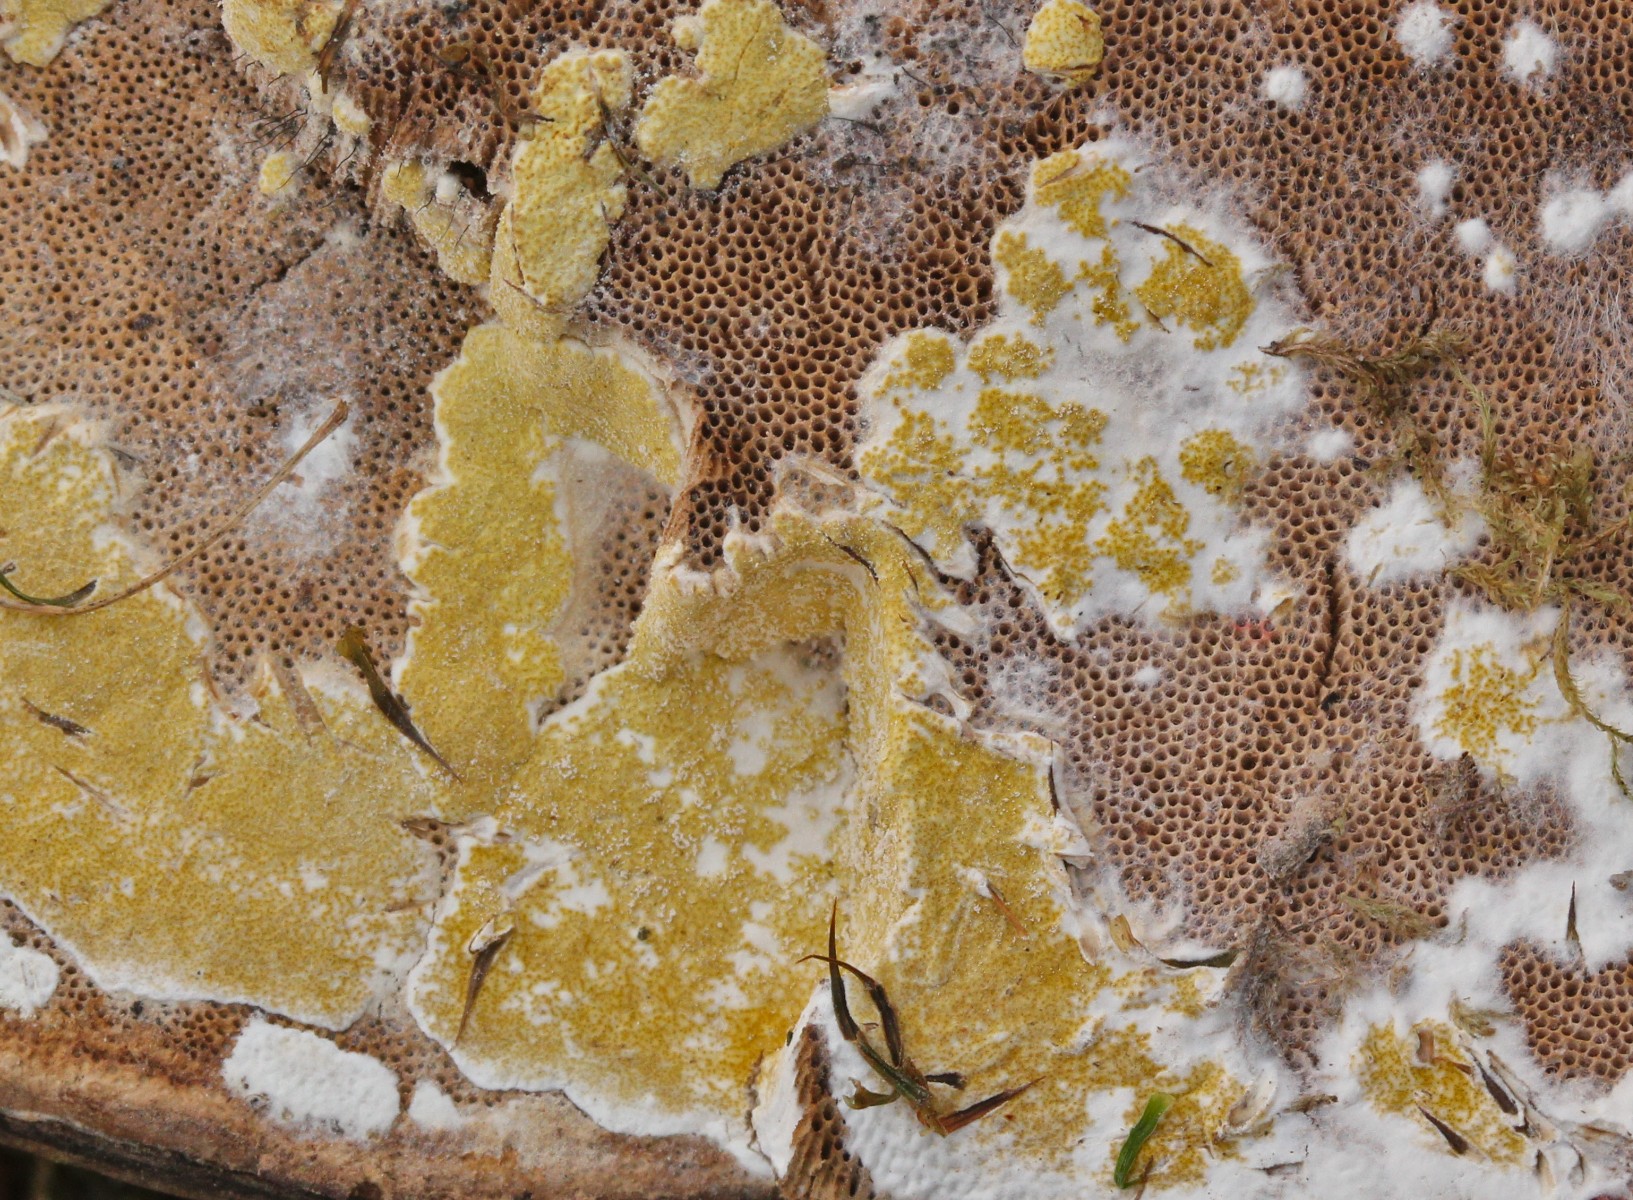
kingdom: Fungi
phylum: Ascomycota
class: Sordariomycetes
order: Hypocreales
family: Hypocreaceae
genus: Trichoderma
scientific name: Trichoderma protopulvinatum
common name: hovpore-kødkerne
